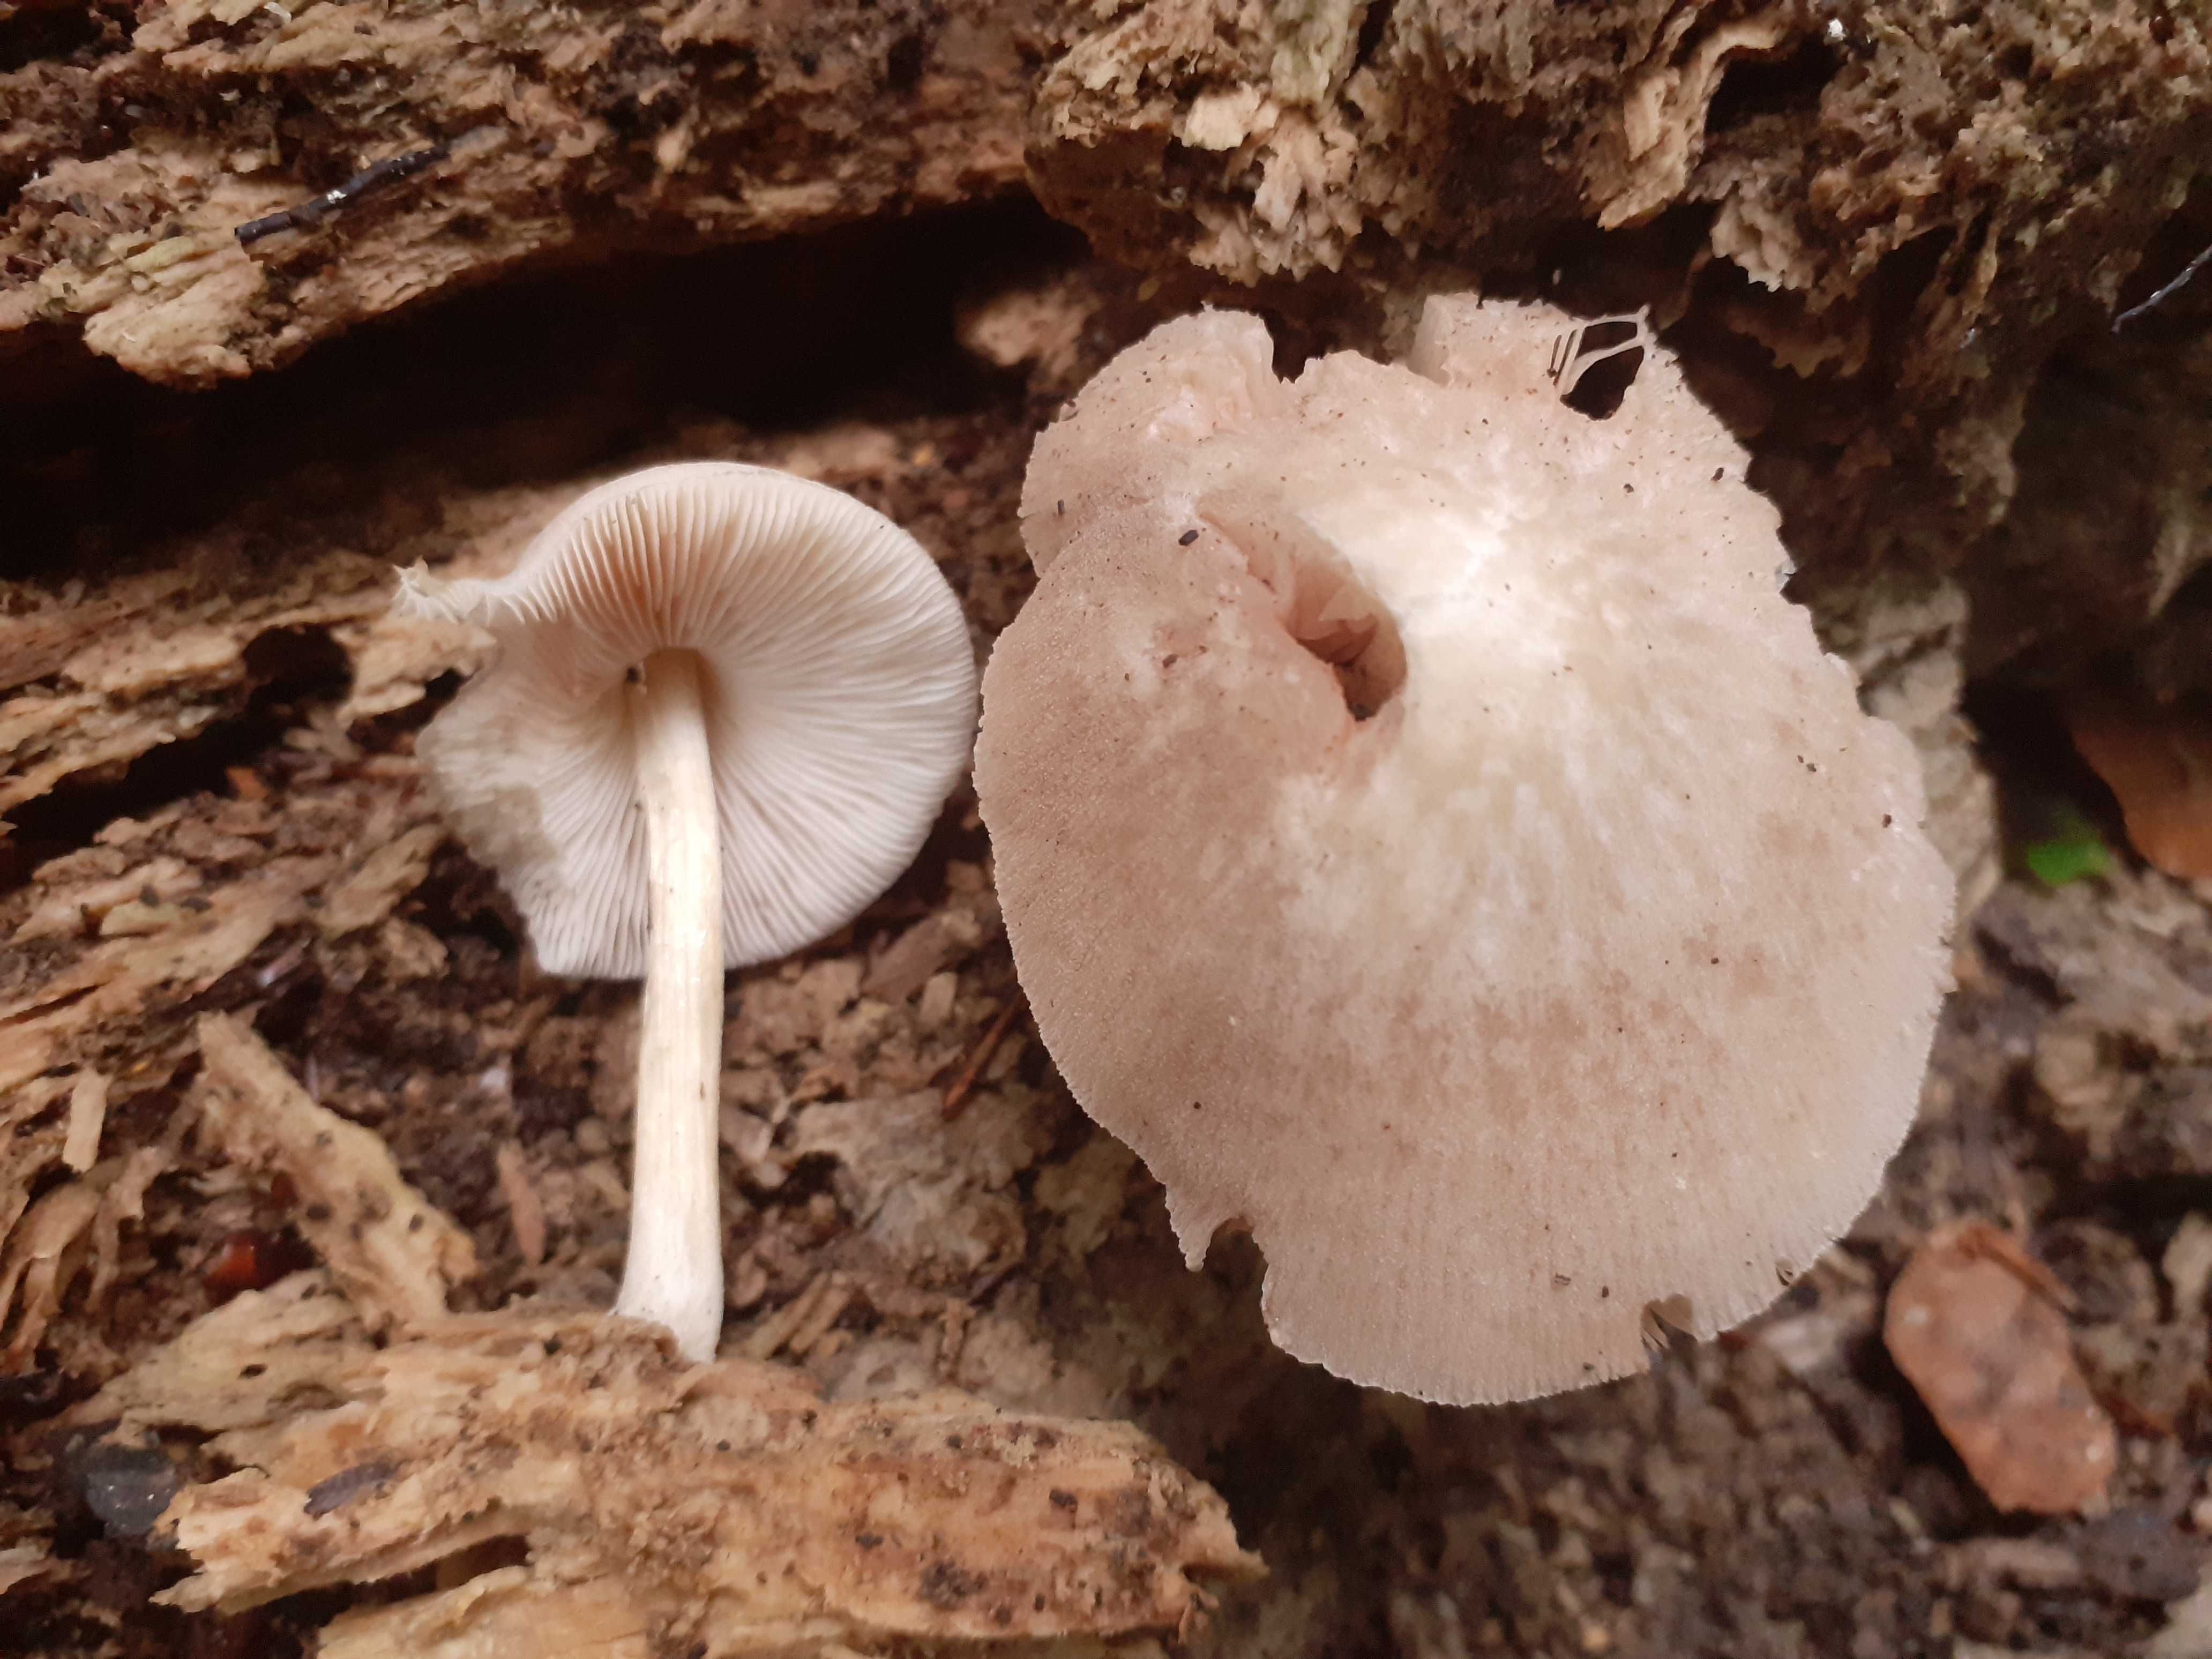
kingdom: Fungi
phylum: Basidiomycota
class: Agaricomycetes
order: Agaricales
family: Pluteaceae
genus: Pluteus
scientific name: Pluteus semibulbosus
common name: knoldet skærmhat
